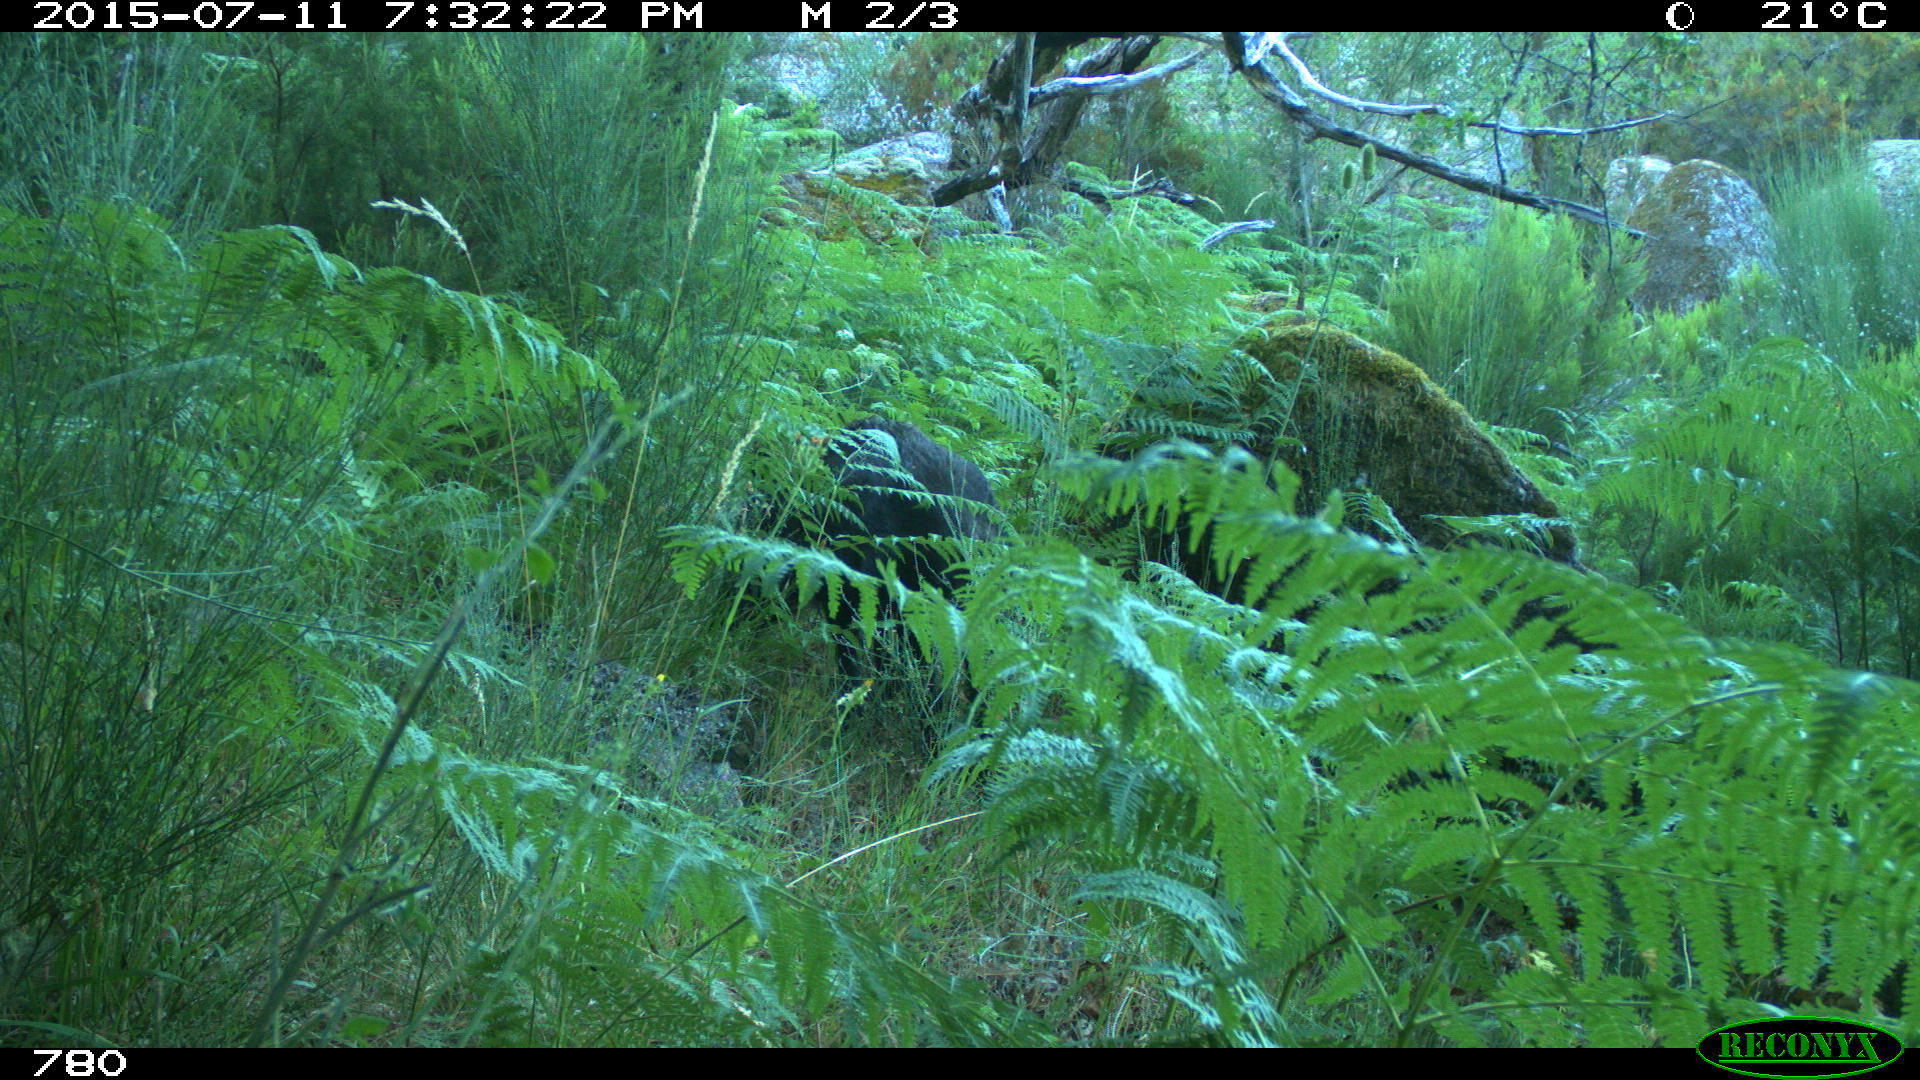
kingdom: Animalia
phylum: Chordata
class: Mammalia
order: Artiodactyla
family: Suidae
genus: Sus
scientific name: Sus scrofa
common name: Wild boar
